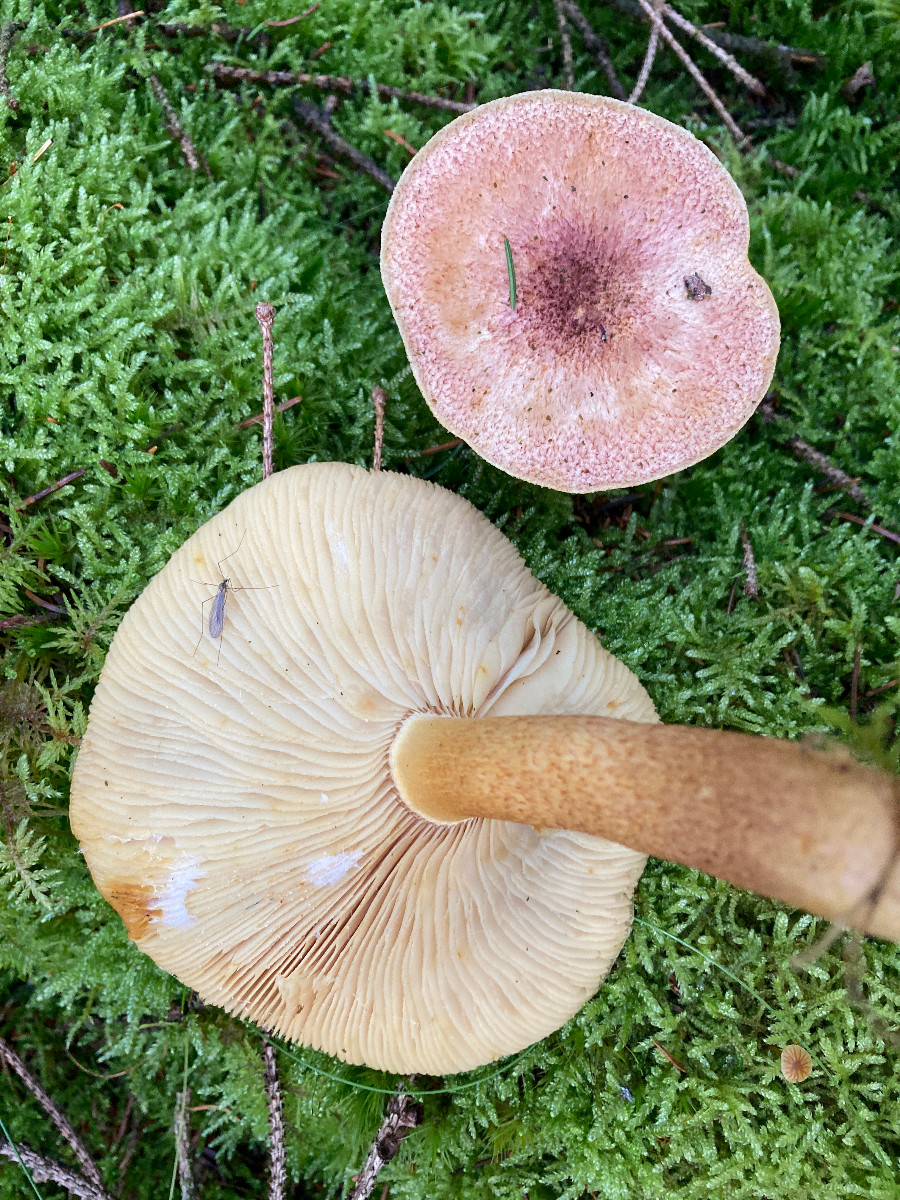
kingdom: Fungi
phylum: Basidiomycota
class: Agaricomycetes
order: Agaricales
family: Tricholomataceae
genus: Tricholomopsis
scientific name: Tricholomopsis rutilans
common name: purpur-væbnerhat
